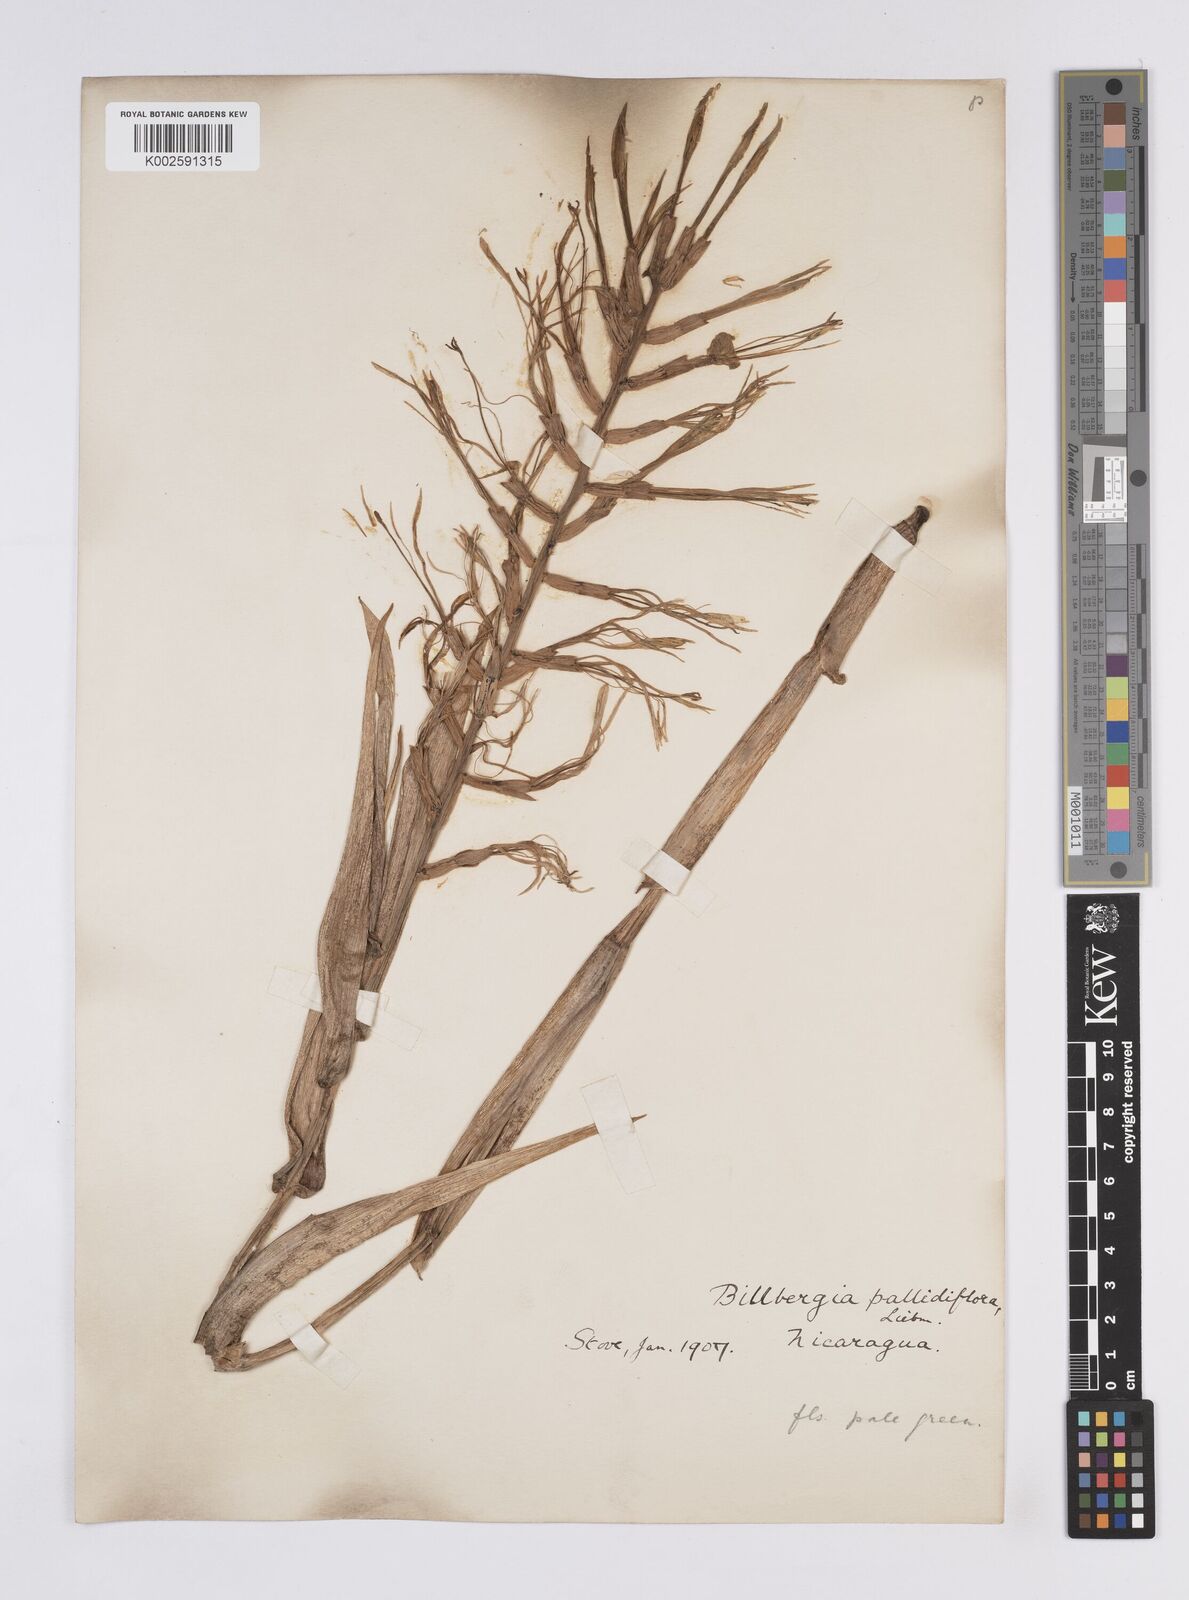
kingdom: Plantae
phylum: Tracheophyta
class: Liliopsida
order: Poales
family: Bromeliaceae
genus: Billbergia
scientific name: Billbergia pallidiflora
